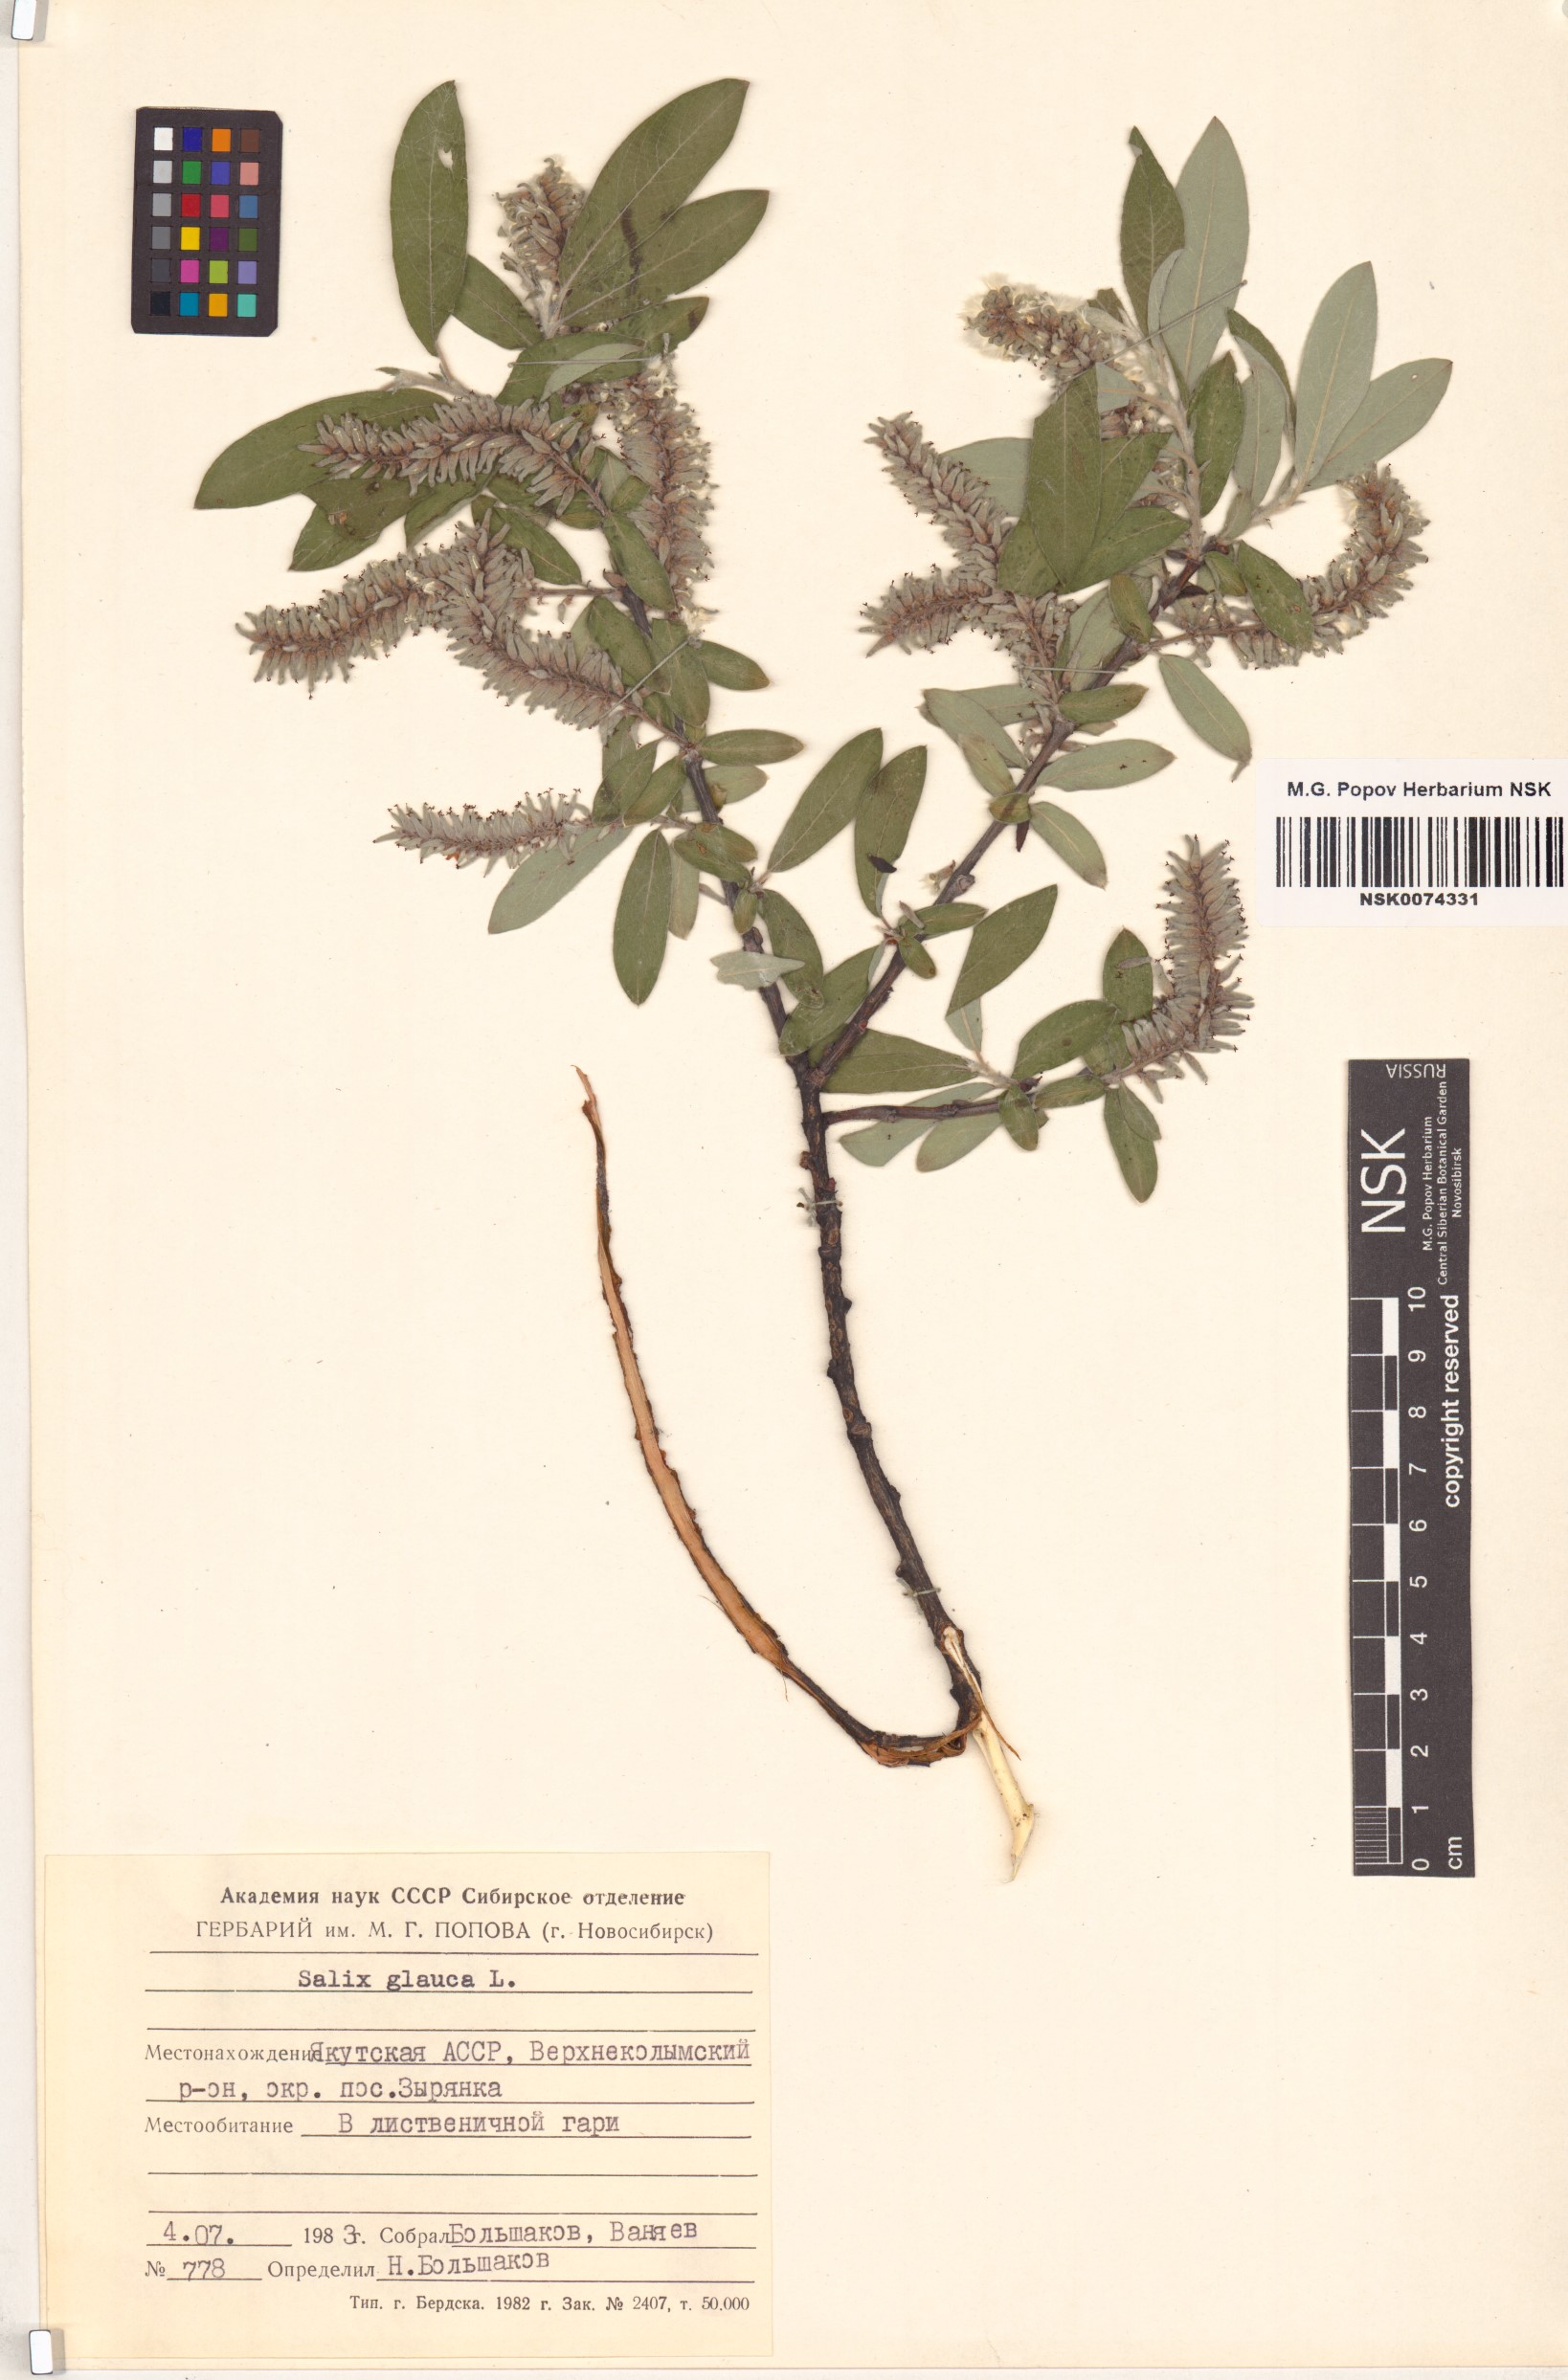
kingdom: Plantae
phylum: Tracheophyta
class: Magnoliopsida
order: Malpighiales
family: Salicaceae
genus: Salix
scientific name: Salix glauca
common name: Glaucous willow
